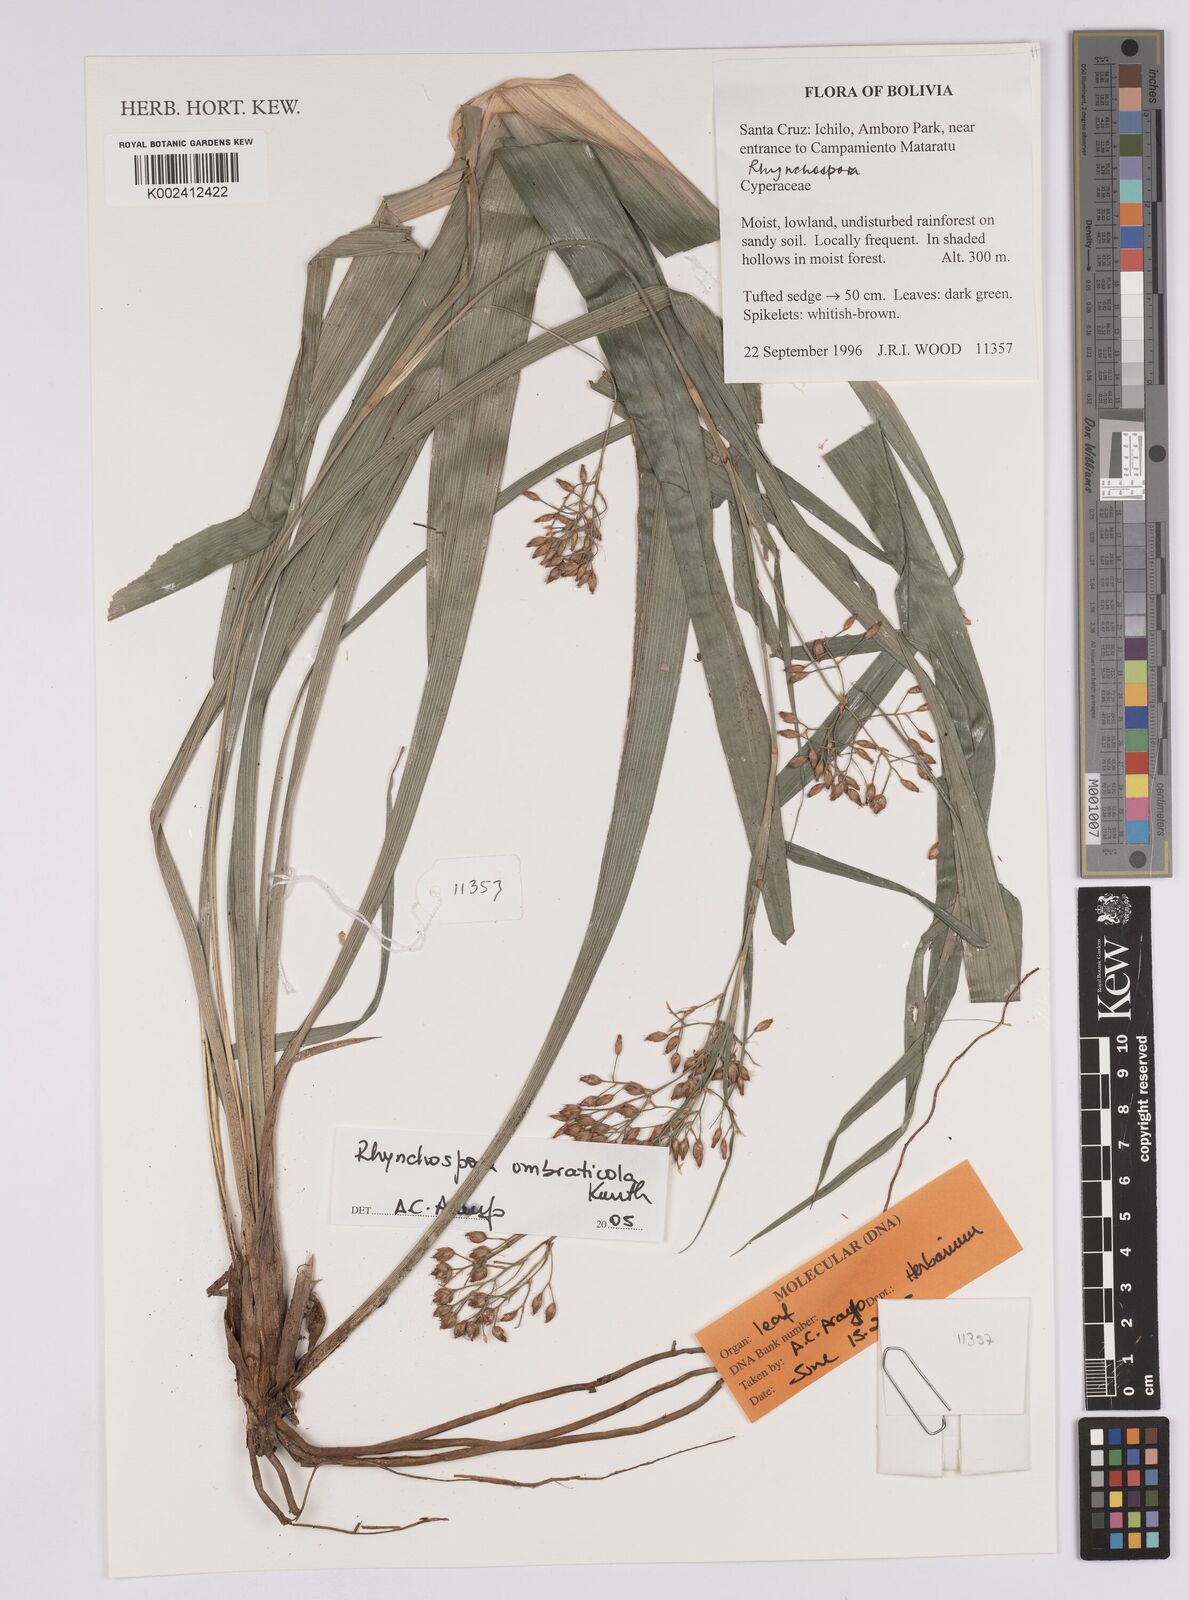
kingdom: Plantae
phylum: Tracheophyta
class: Liliopsida
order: Poales
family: Cyperaceae
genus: Rhynchospora
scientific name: Rhynchospora umbraticola
